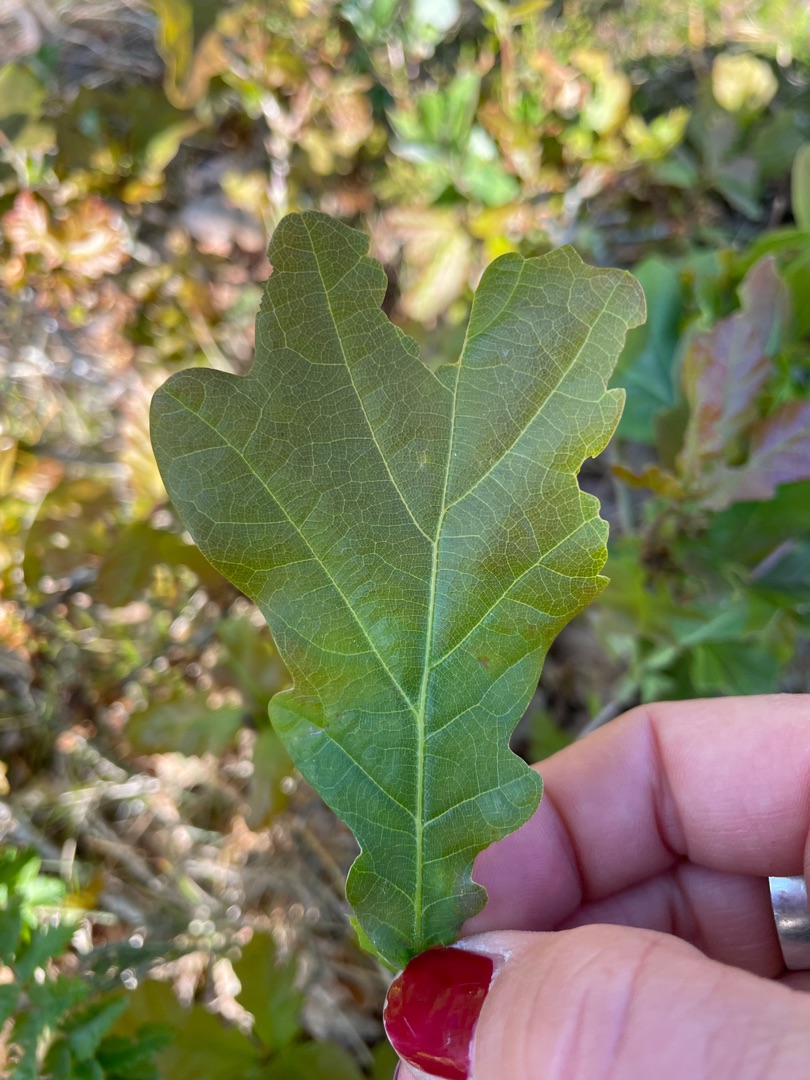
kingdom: Plantae
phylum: Tracheophyta
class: Magnoliopsida
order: Fagales
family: Fagaceae
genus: Quercus
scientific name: Quercus robur
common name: Stilk-eg/almindelig eg
